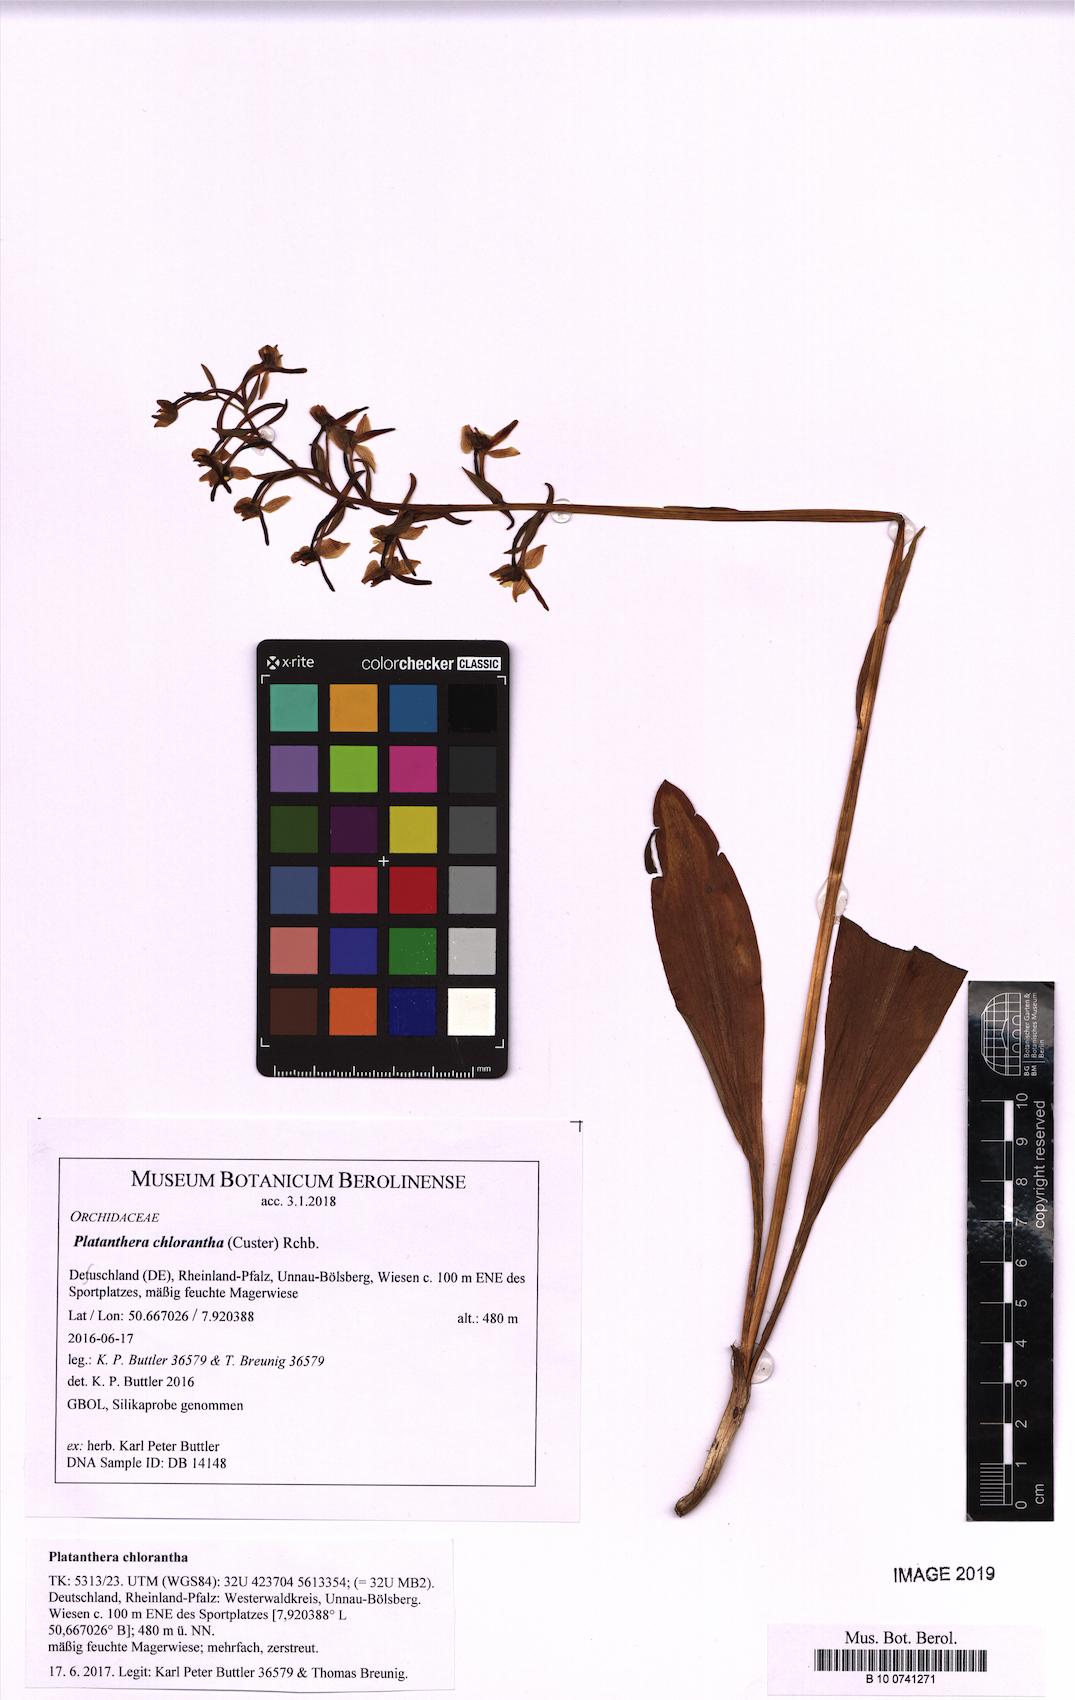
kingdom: Plantae
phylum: Tracheophyta
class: Liliopsida
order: Asparagales
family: Orchidaceae
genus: Platanthera
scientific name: Platanthera chlorantha
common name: Greater butterfly-orchid
